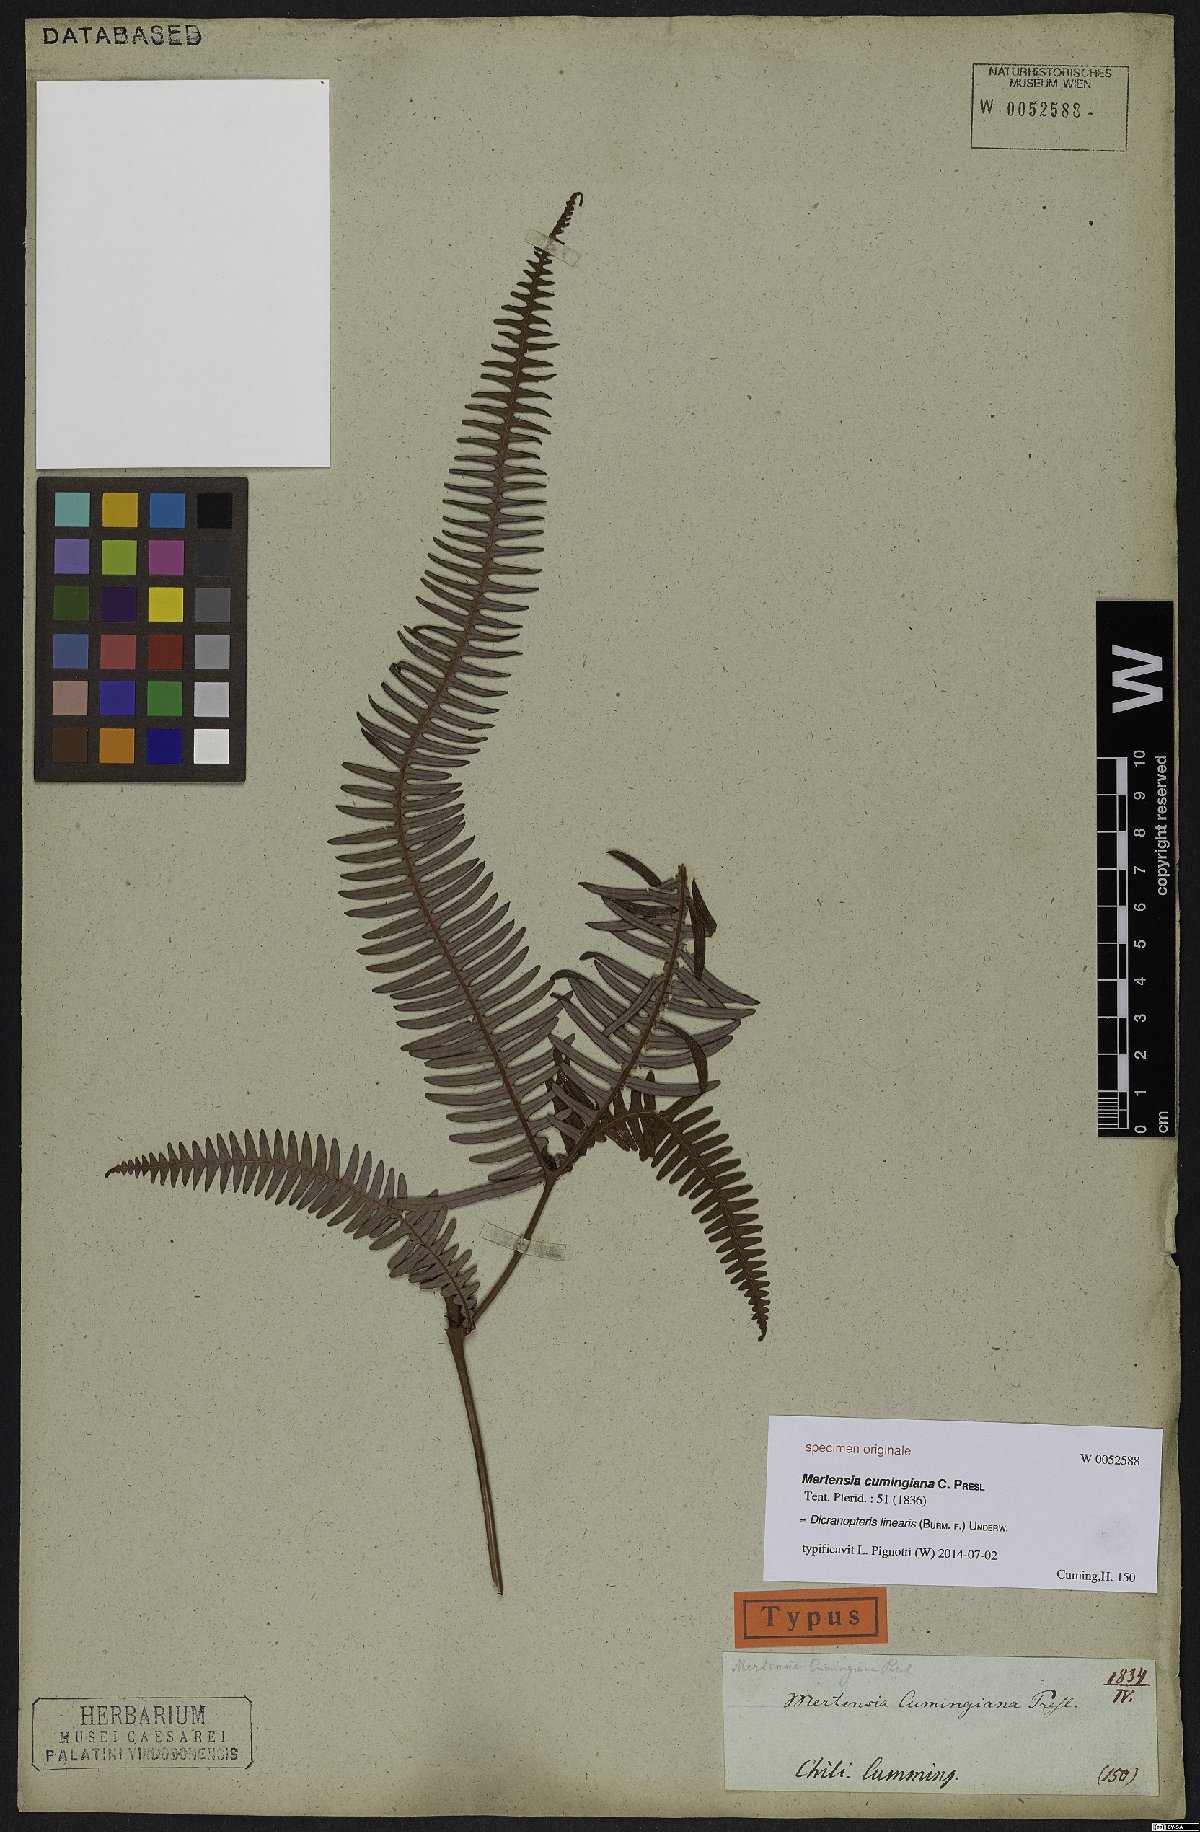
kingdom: Plantae
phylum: Tracheophyta
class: Polypodiopsida
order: Gleicheniales
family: Gleicheniaceae
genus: Dicranopteris
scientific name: Dicranopteris linearis
